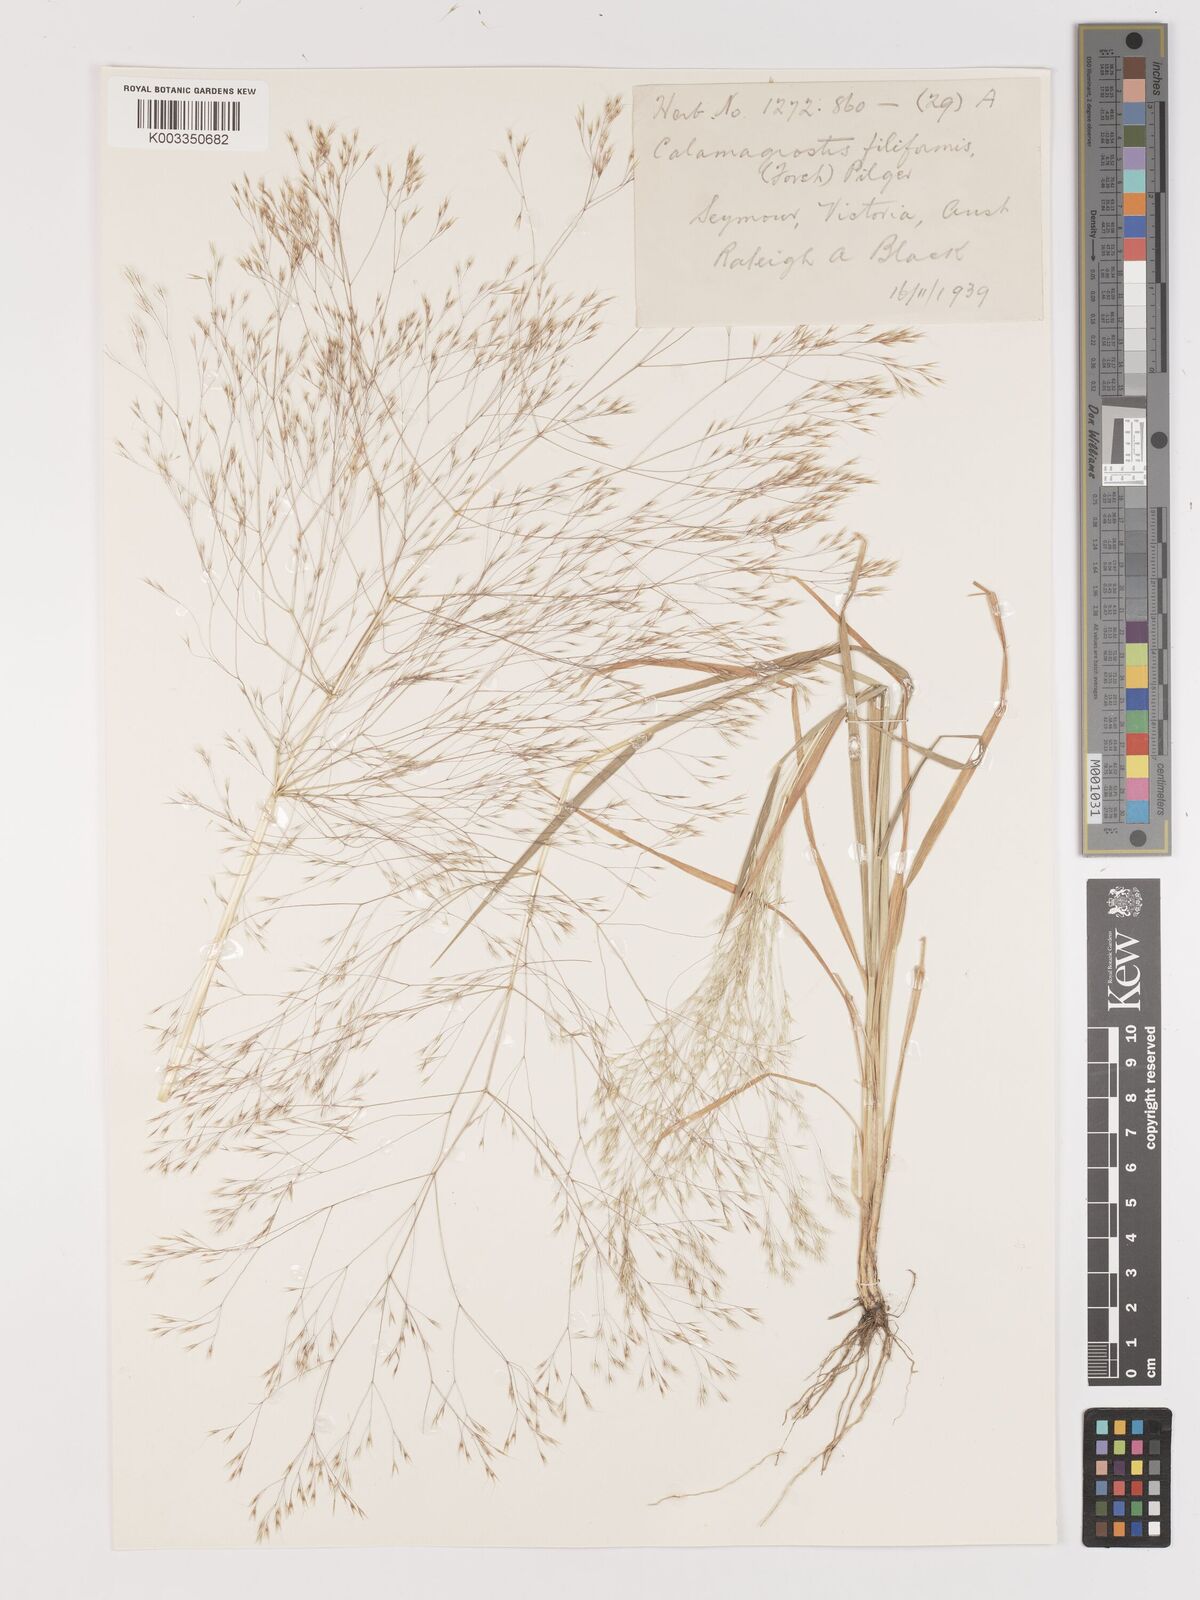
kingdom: Plantae
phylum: Tracheophyta
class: Liliopsida
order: Poales
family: Poaceae
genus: Lachnagrostis
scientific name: Lachnagrostis aemula
